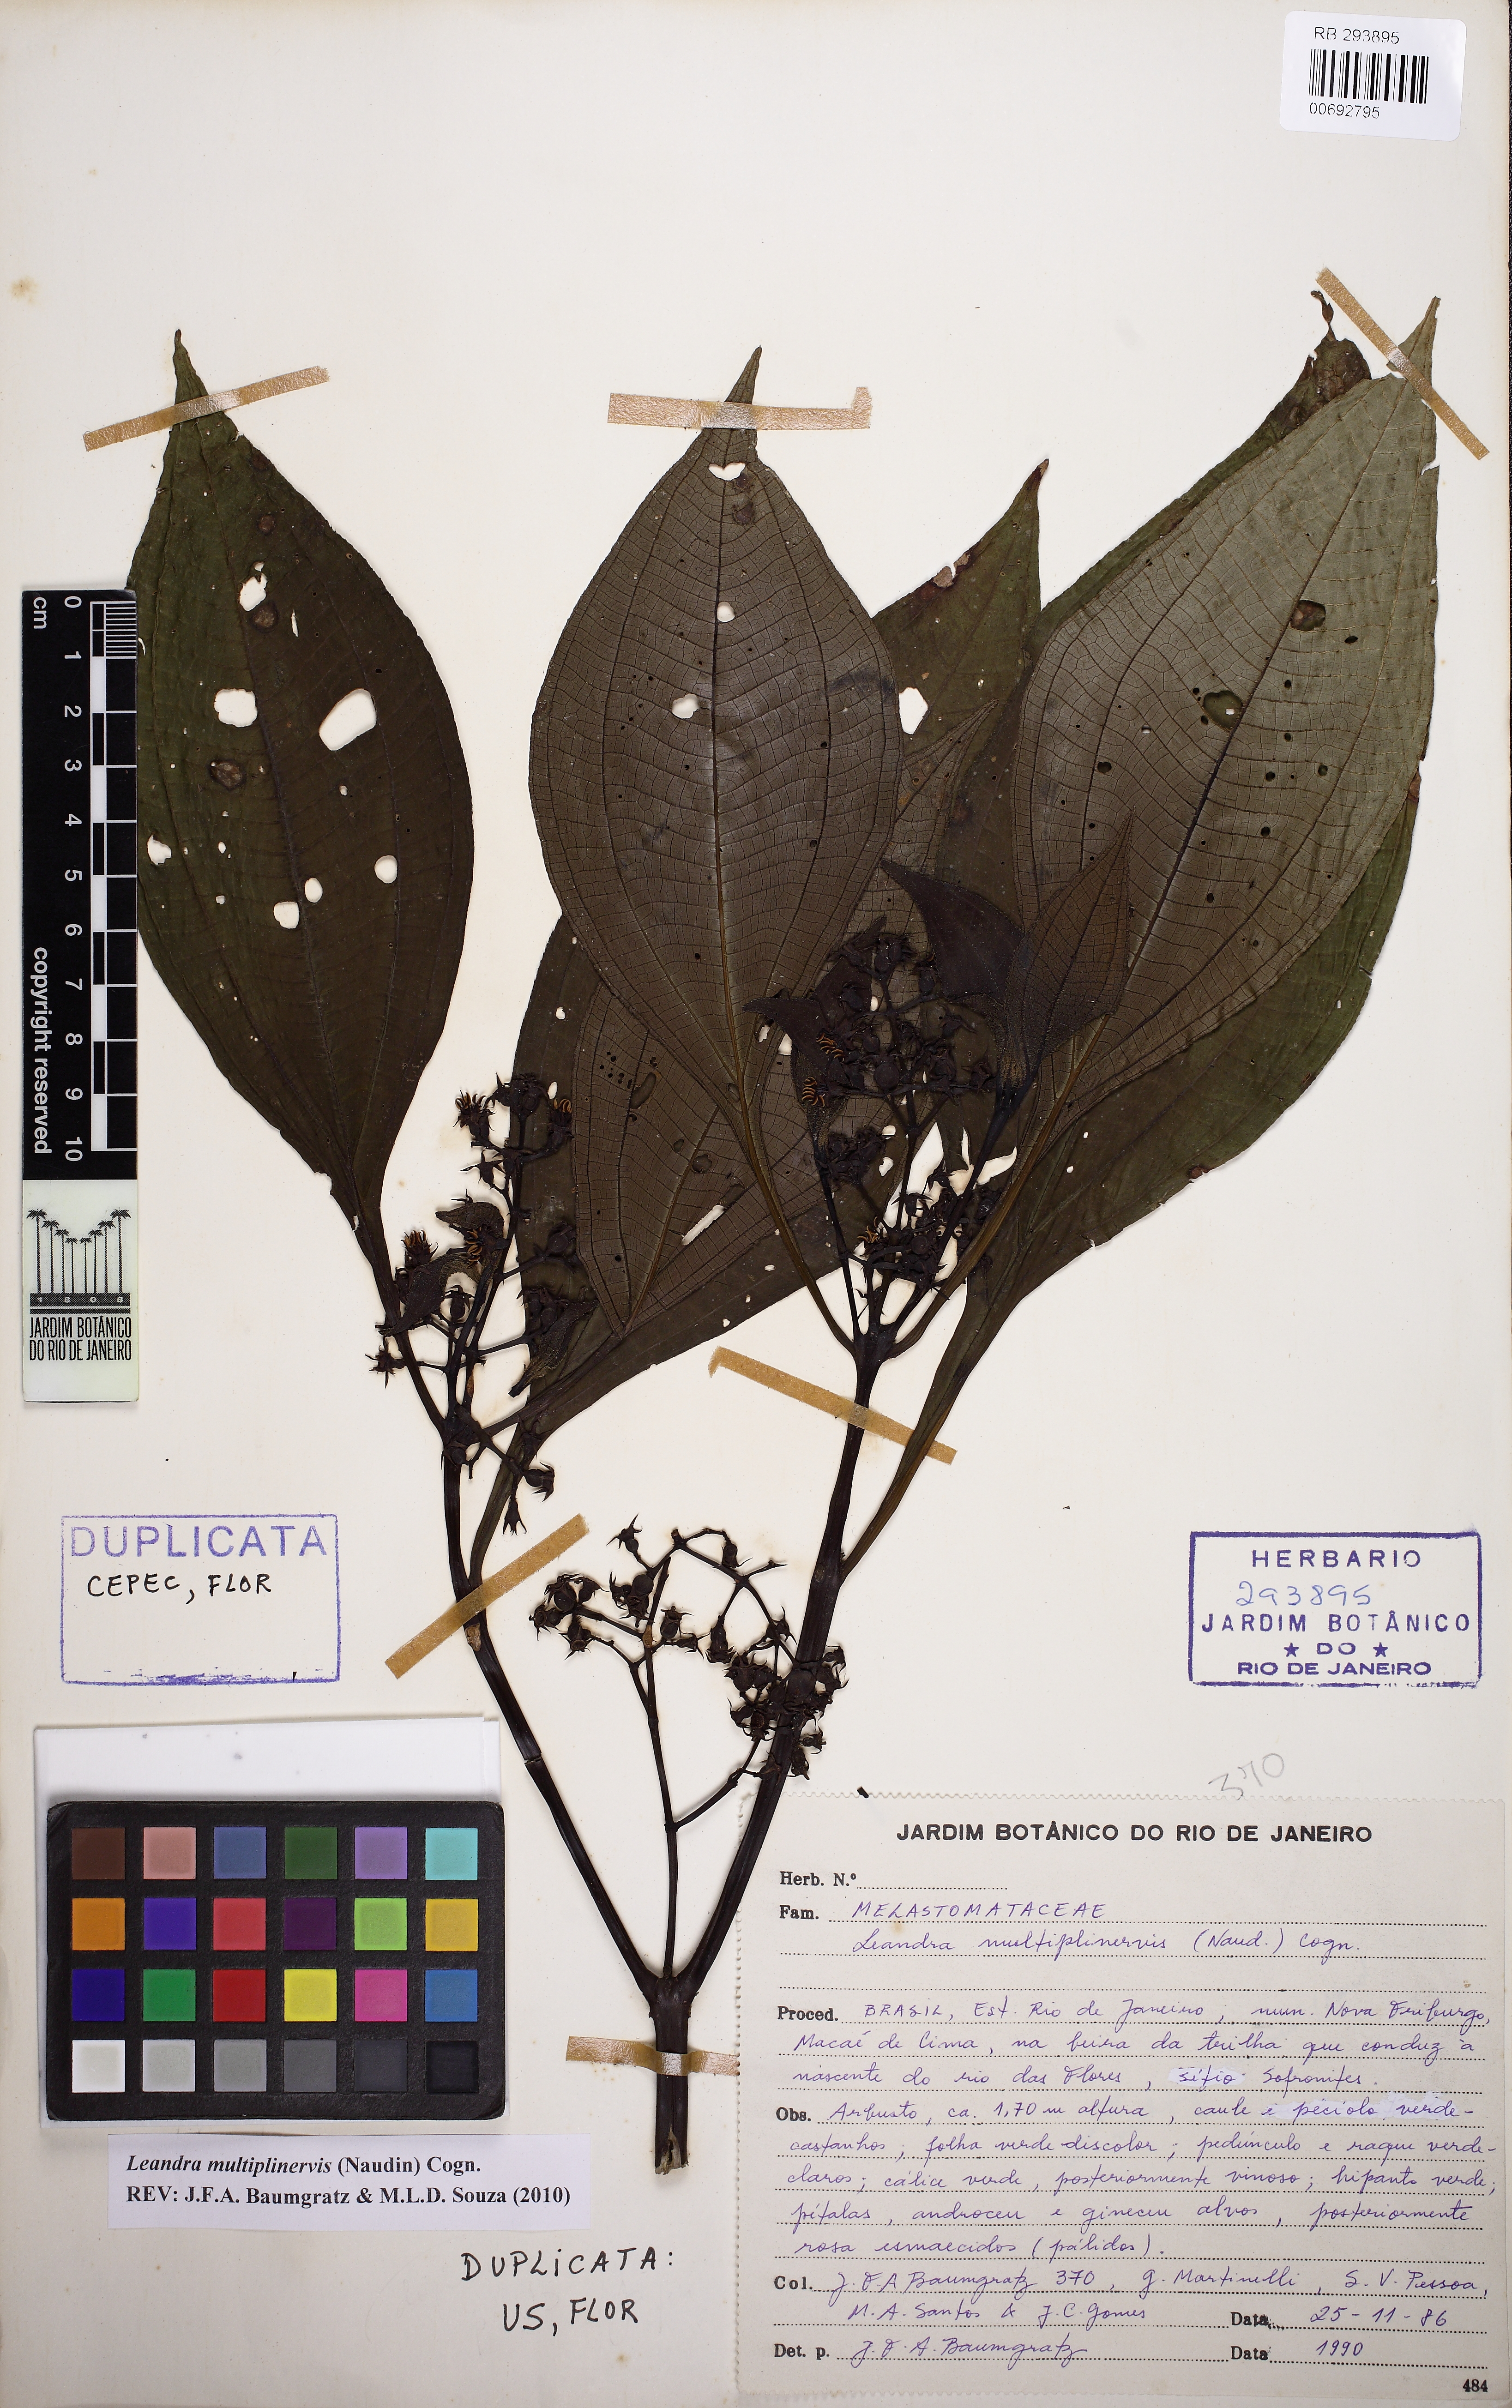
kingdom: Plantae
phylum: Tracheophyta
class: Magnoliopsida
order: Myrtales
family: Melastomataceae
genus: Miconia
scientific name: Miconia oocarpa
